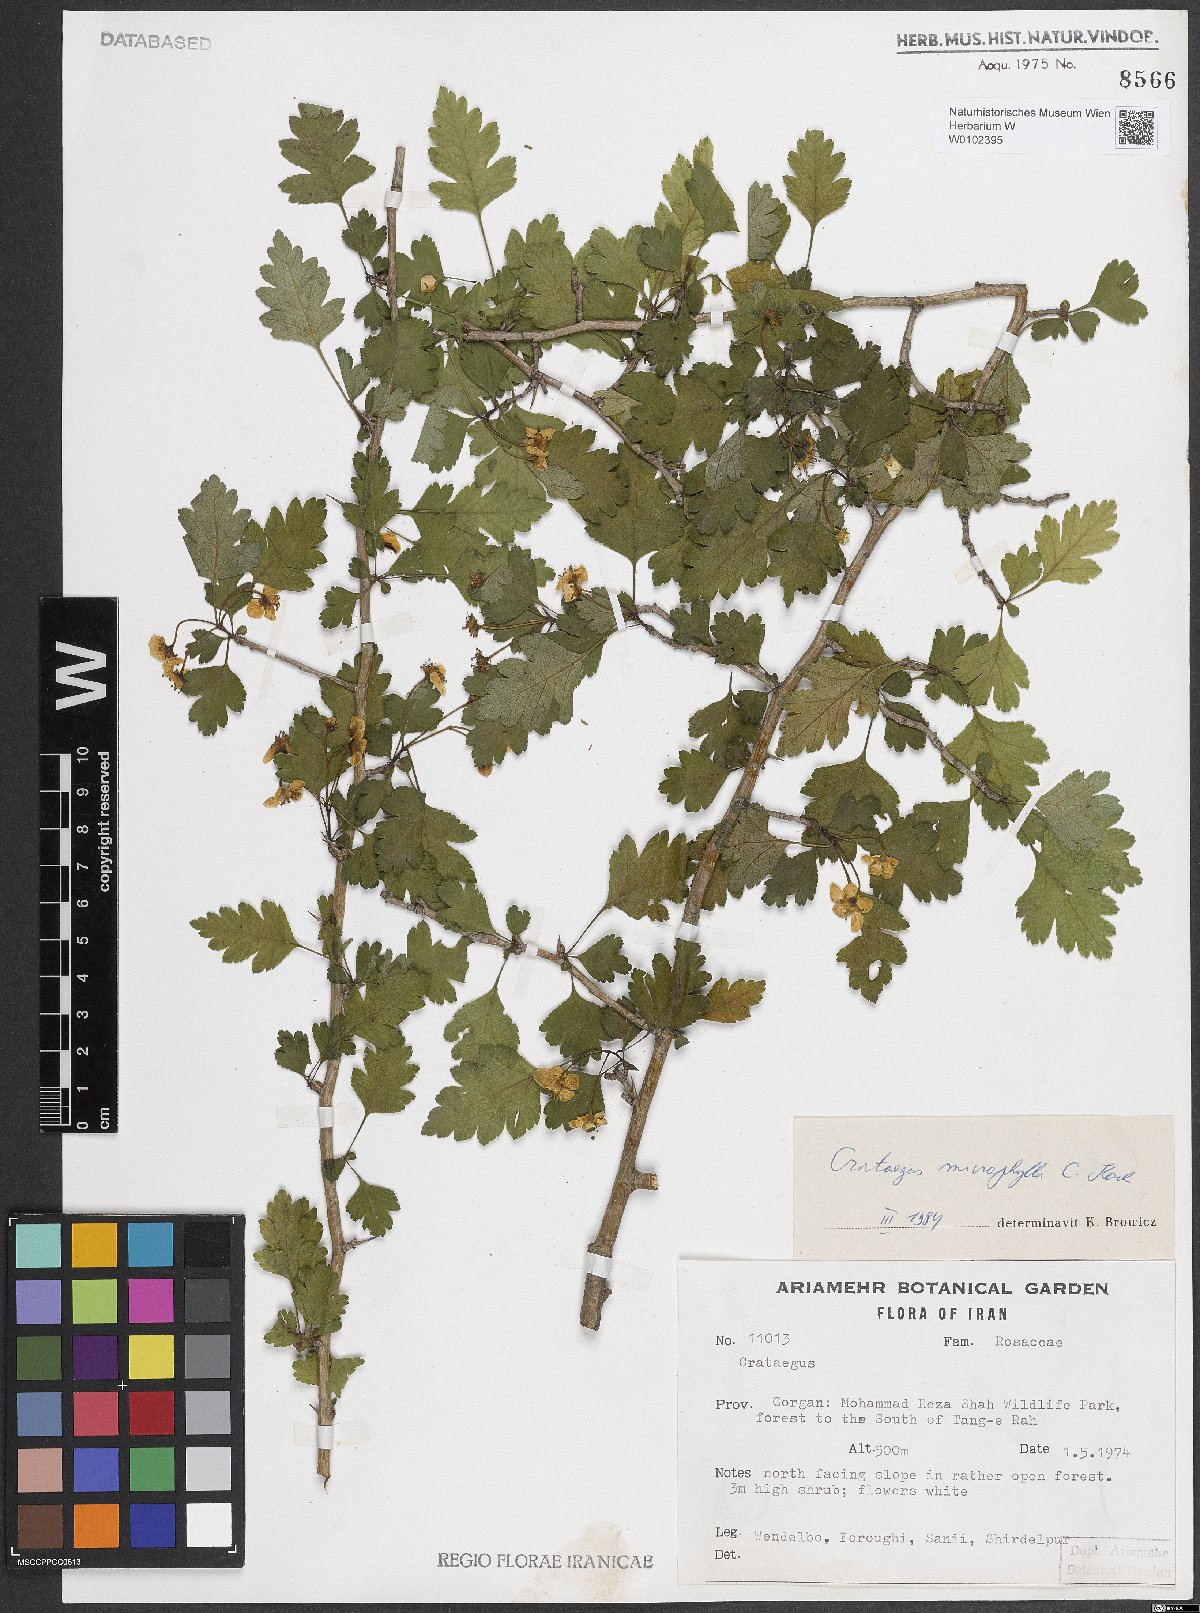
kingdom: Plantae
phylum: Tracheophyta
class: Magnoliopsida
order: Rosales
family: Rosaceae
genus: Crataegus
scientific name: Crataegus microphylla
